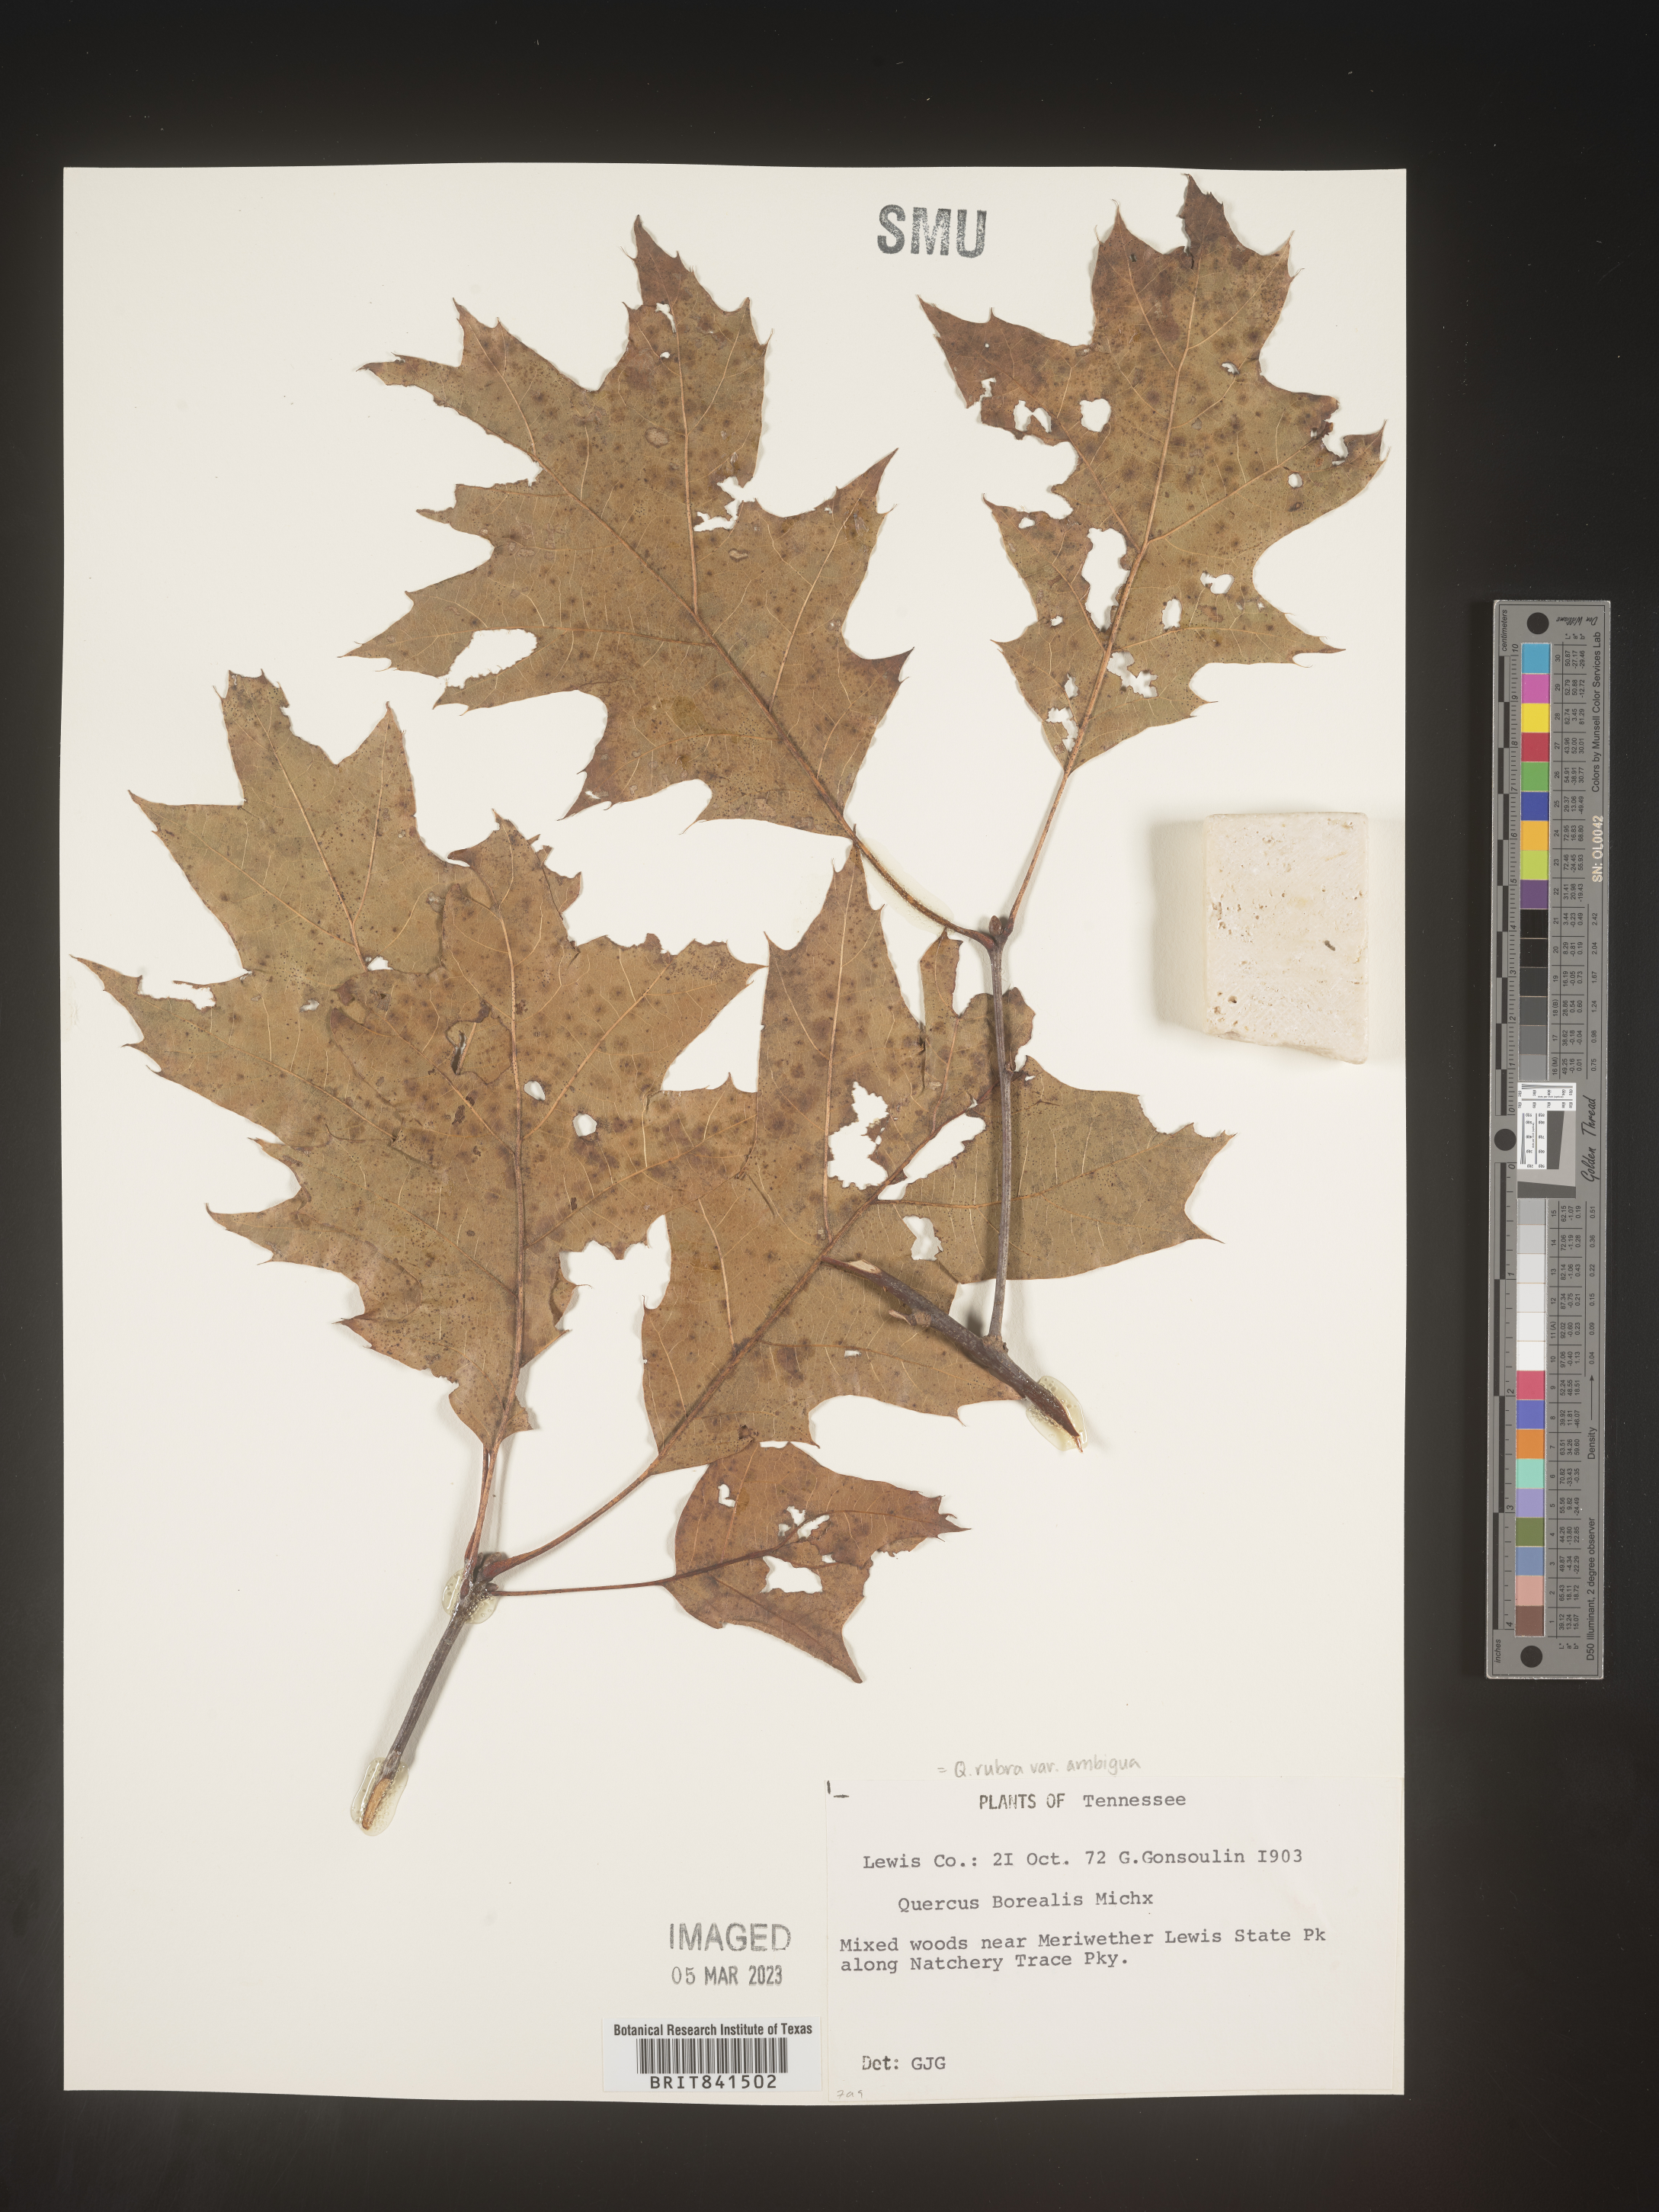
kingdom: Plantae
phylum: Tracheophyta
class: Magnoliopsida
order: Fagales
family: Fagaceae
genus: Quercus
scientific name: Quercus rubra
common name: Red oak
